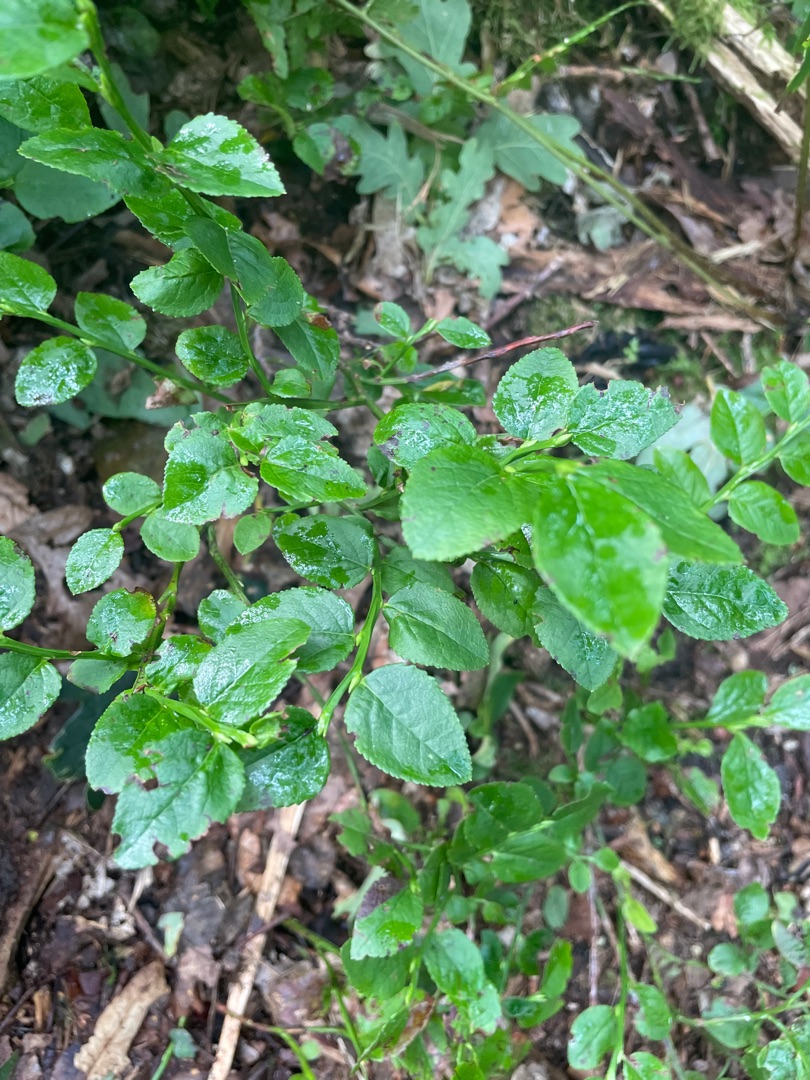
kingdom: Plantae
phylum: Tracheophyta
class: Magnoliopsida
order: Ericales
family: Ericaceae
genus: Vaccinium
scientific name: Vaccinium myrtillus
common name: Blåbær
